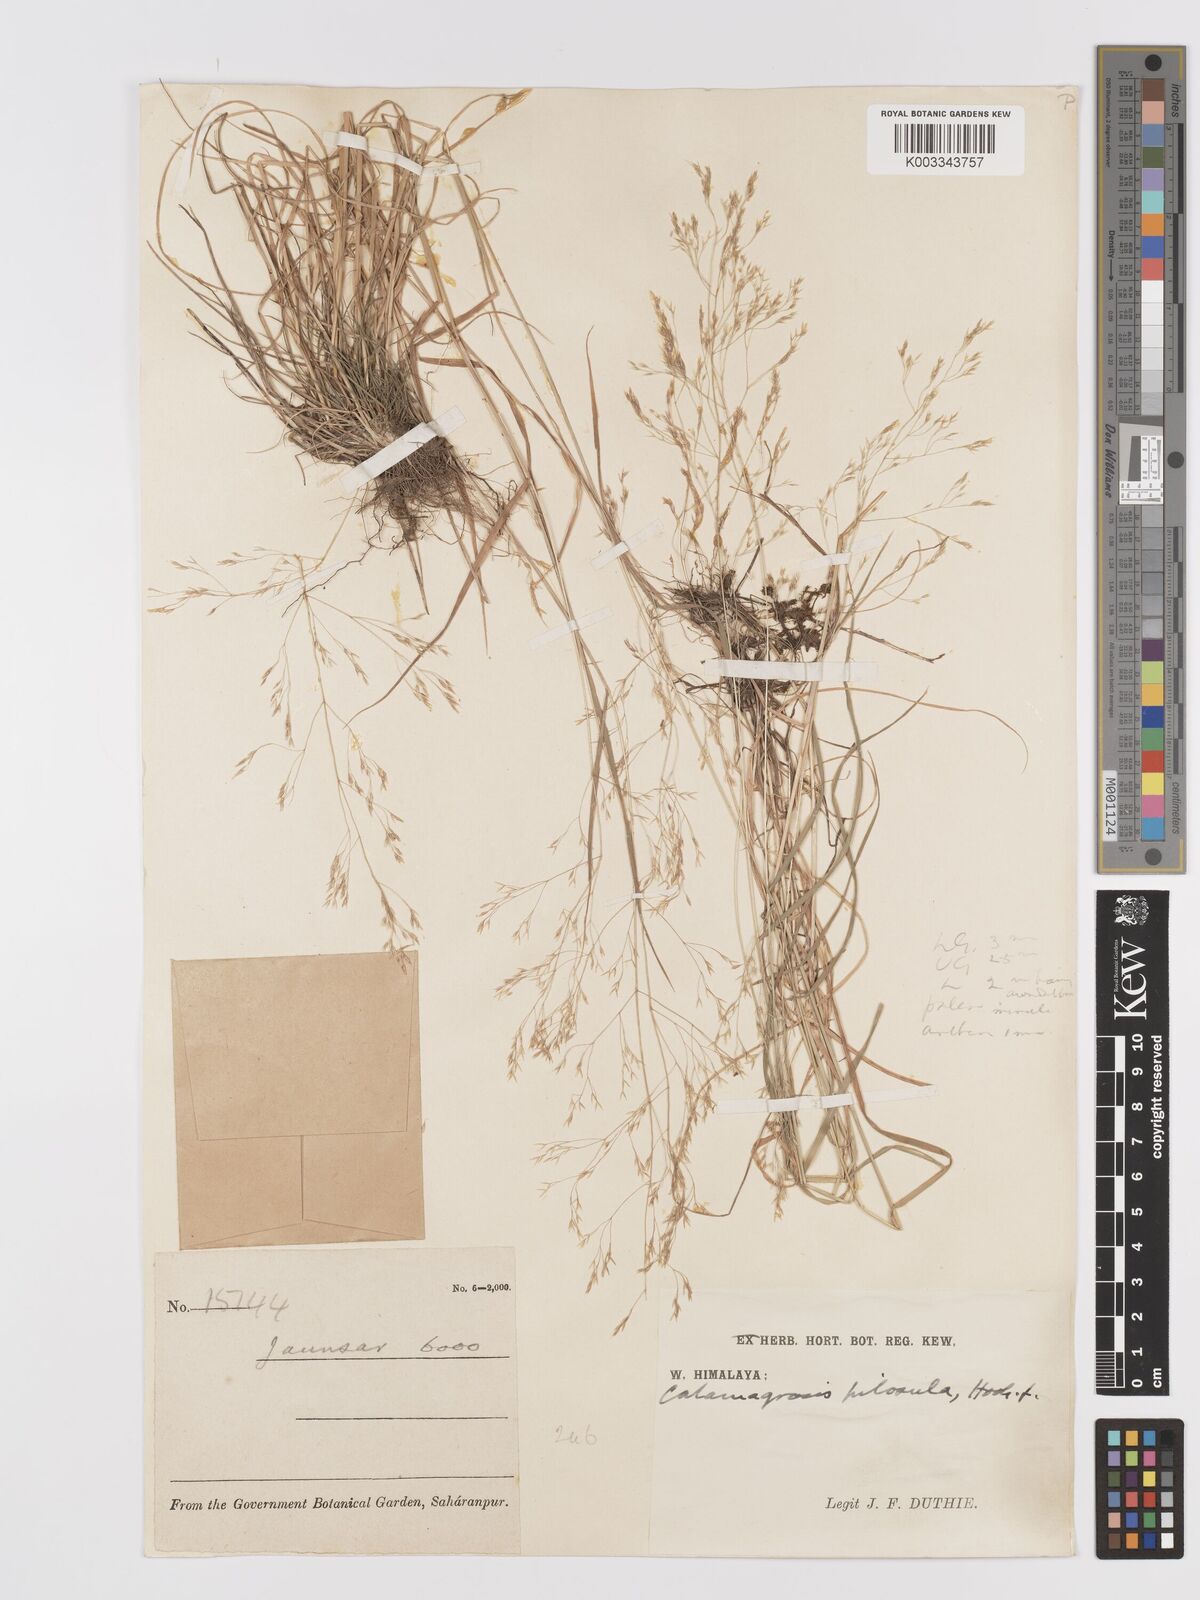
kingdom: Plantae
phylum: Tracheophyta
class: Liliopsida
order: Poales
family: Poaceae
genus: Agrostis
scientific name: Agrostis pilosula
